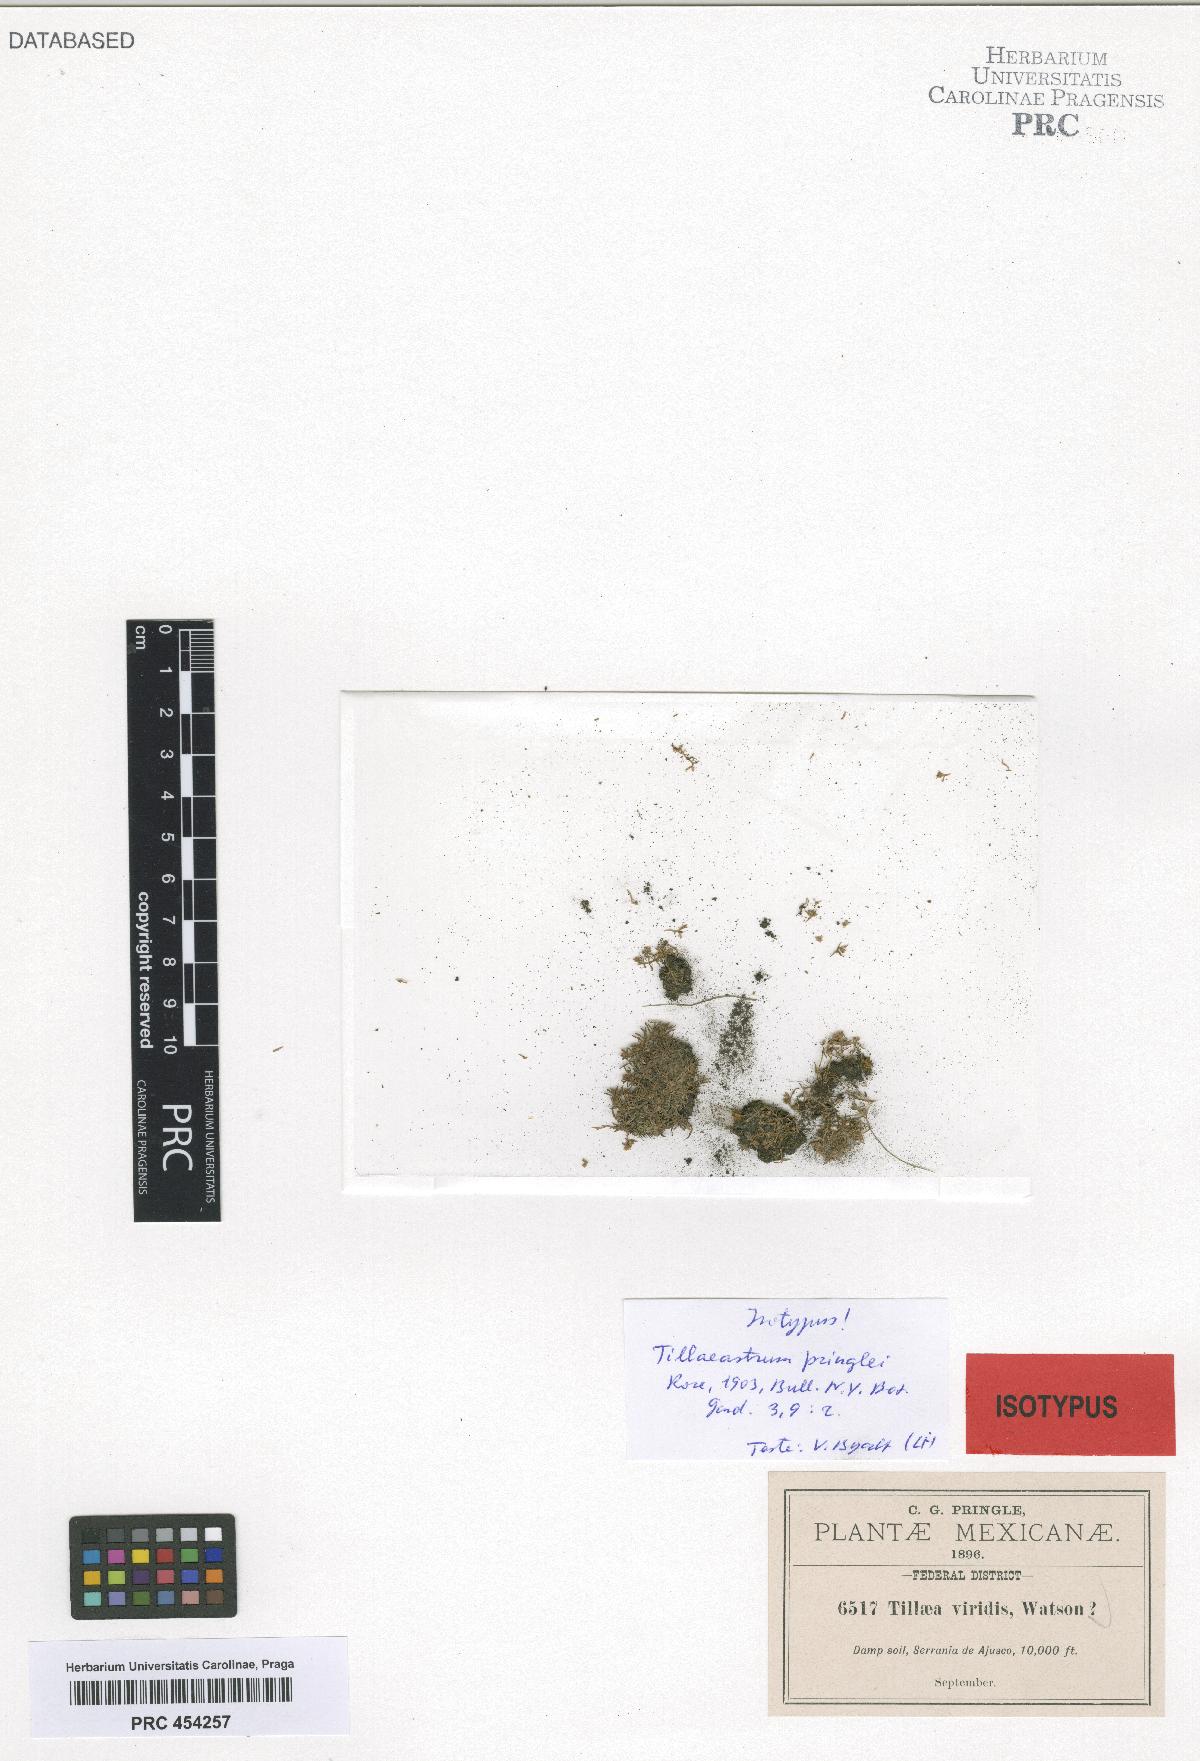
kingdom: Plantae
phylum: Tracheophyta
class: Magnoliopsida
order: Saxifragales
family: Crassulaceae
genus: Crassula
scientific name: Crassula aquatica
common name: Pigmyweed
